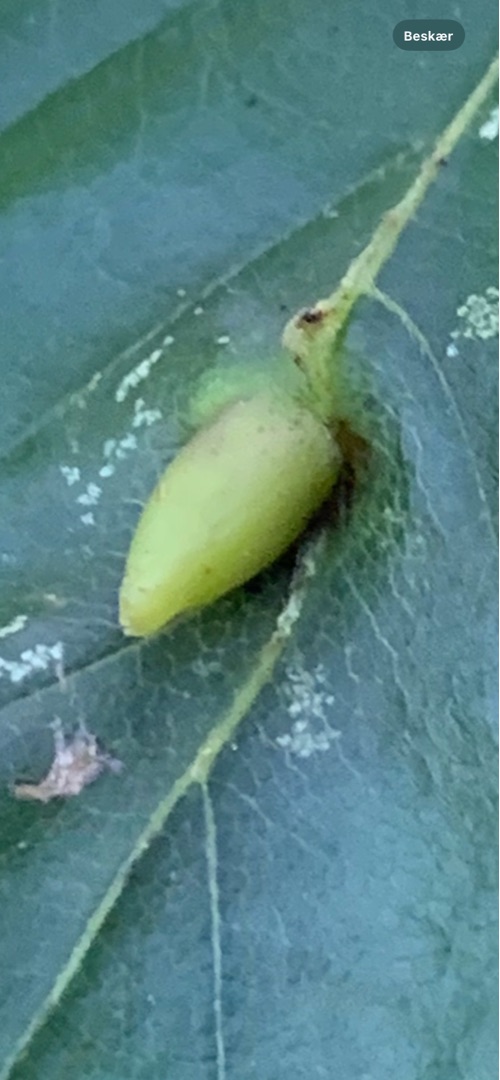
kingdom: Animalia
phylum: Arthropoda
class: Insecta
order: Diptera
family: Cecidomyiidae
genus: Mikiola
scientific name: Mikiola fagi
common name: Bøgegalmyg
